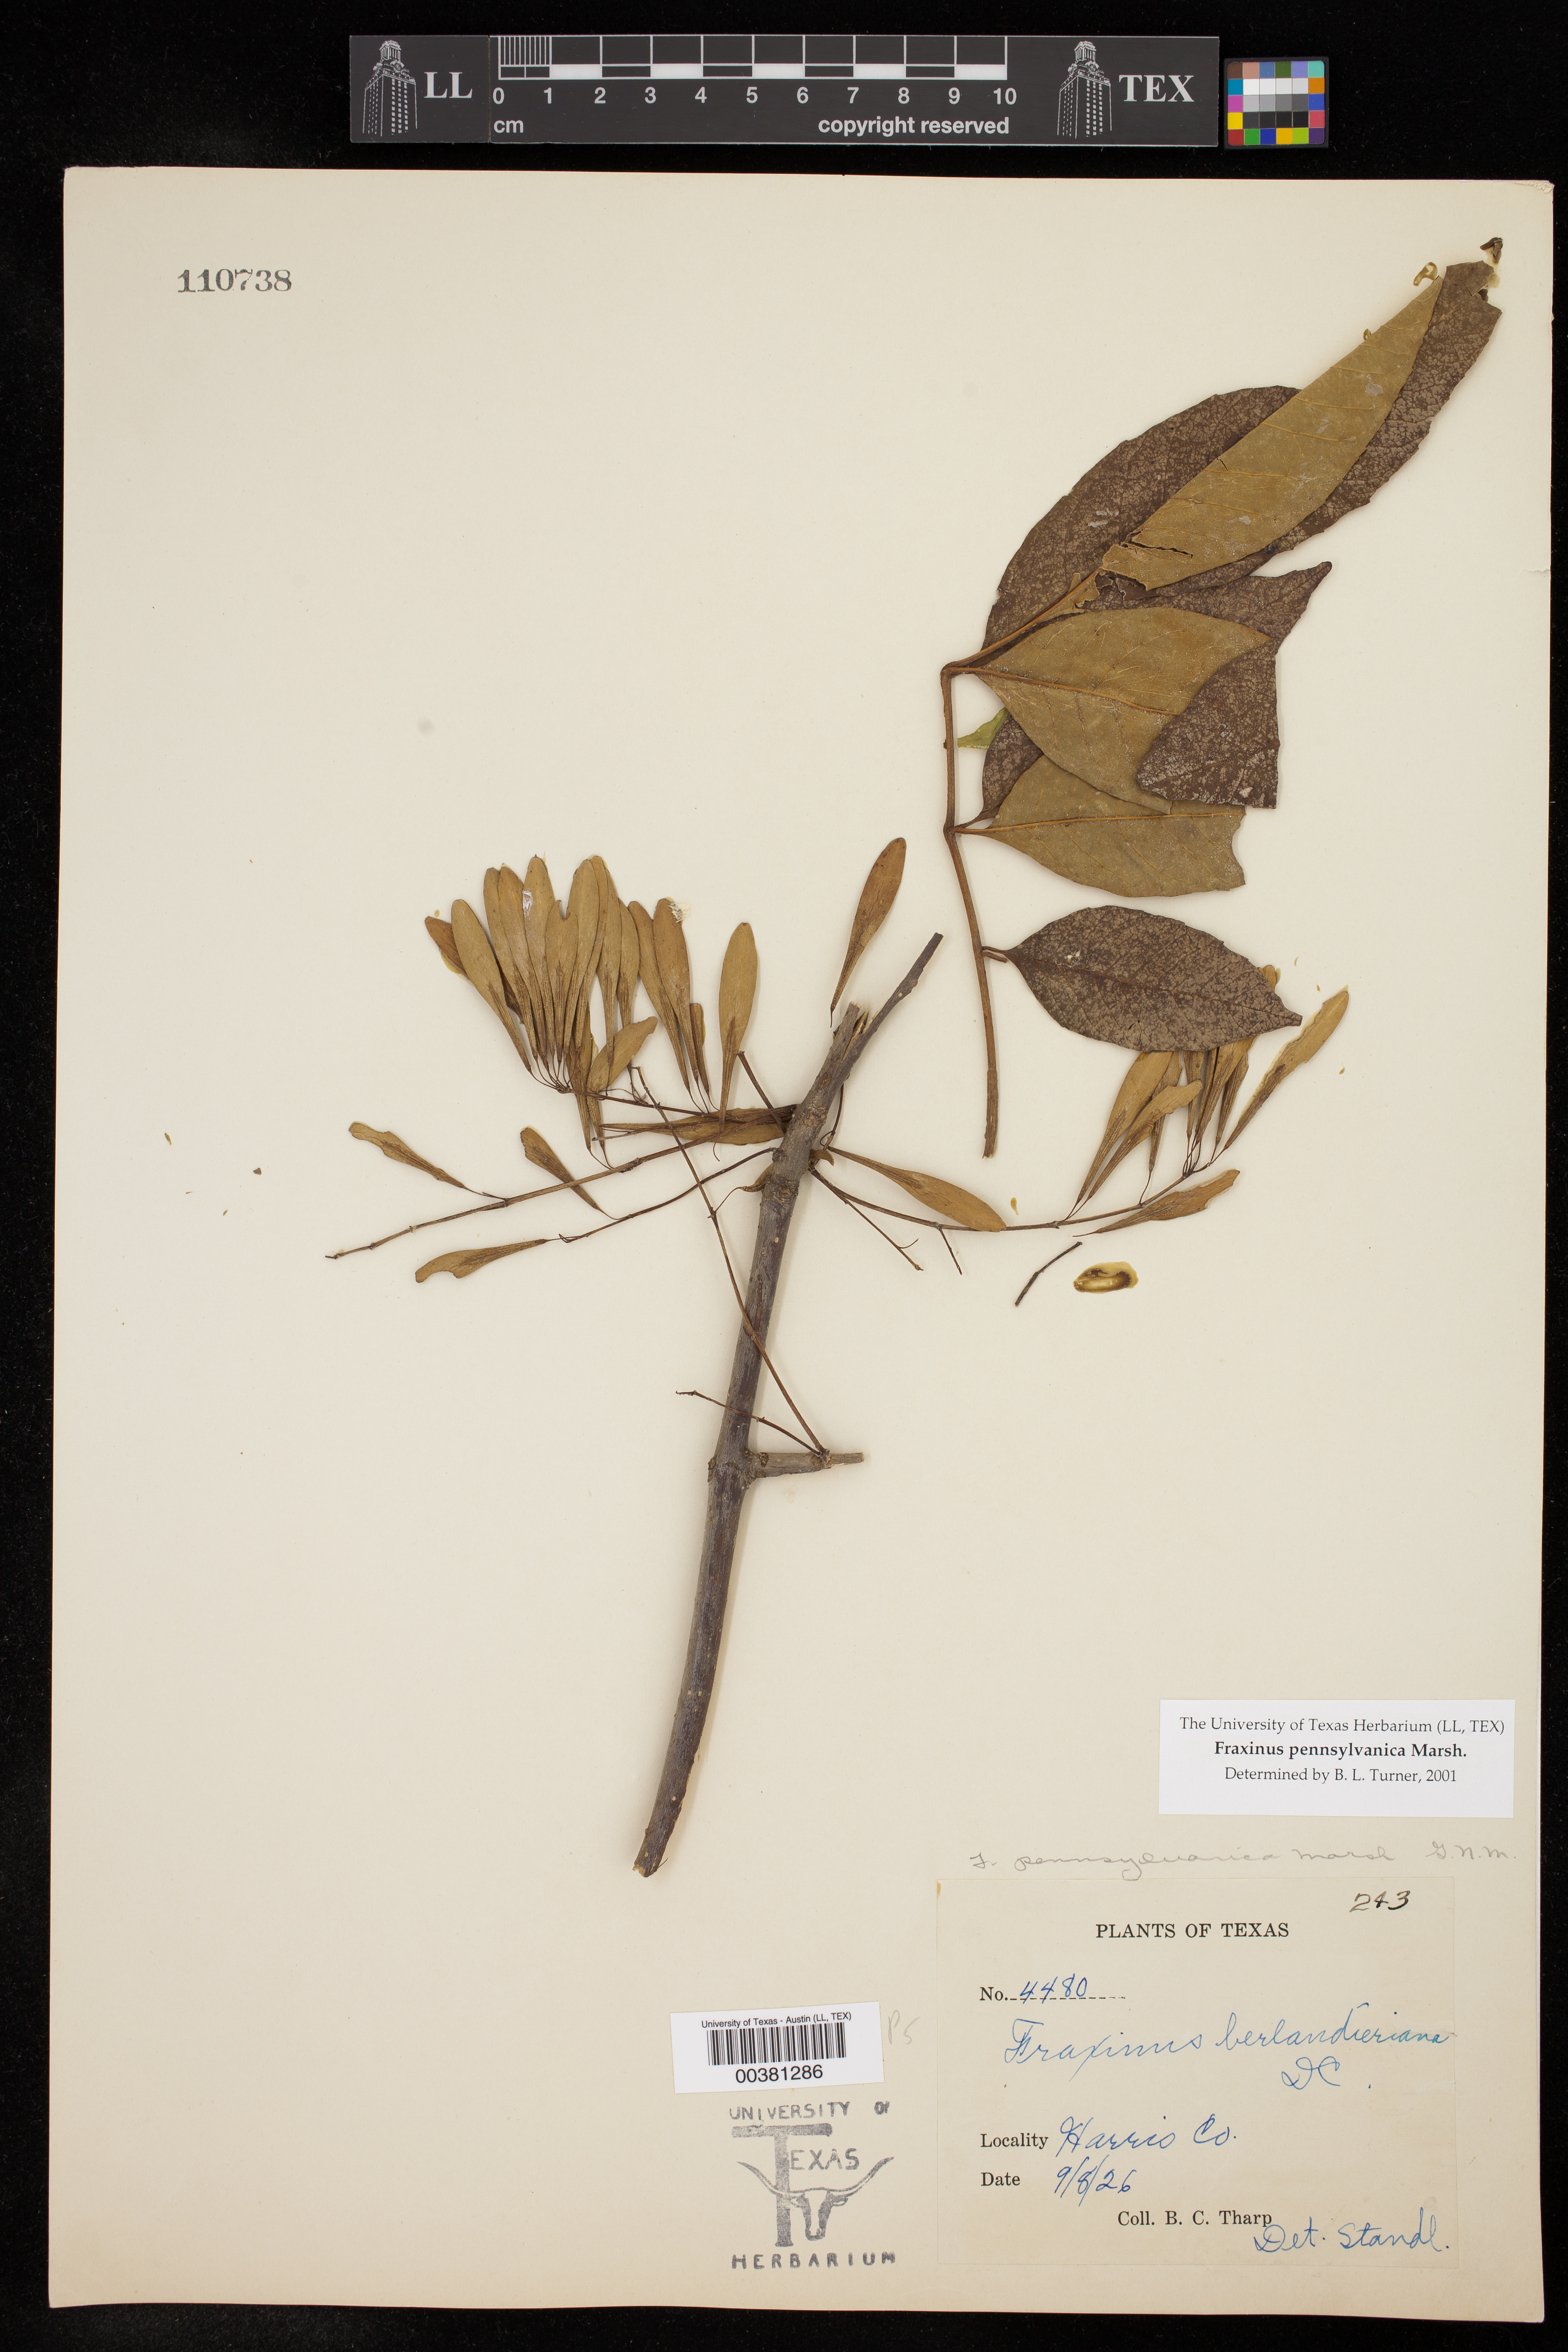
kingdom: Plantae
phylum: Tracheophyta
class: Magnoliopsida
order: Lamiales
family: Oleaceae
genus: Fraxinus
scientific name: Fraxinus pennsylvanica
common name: Green ash
